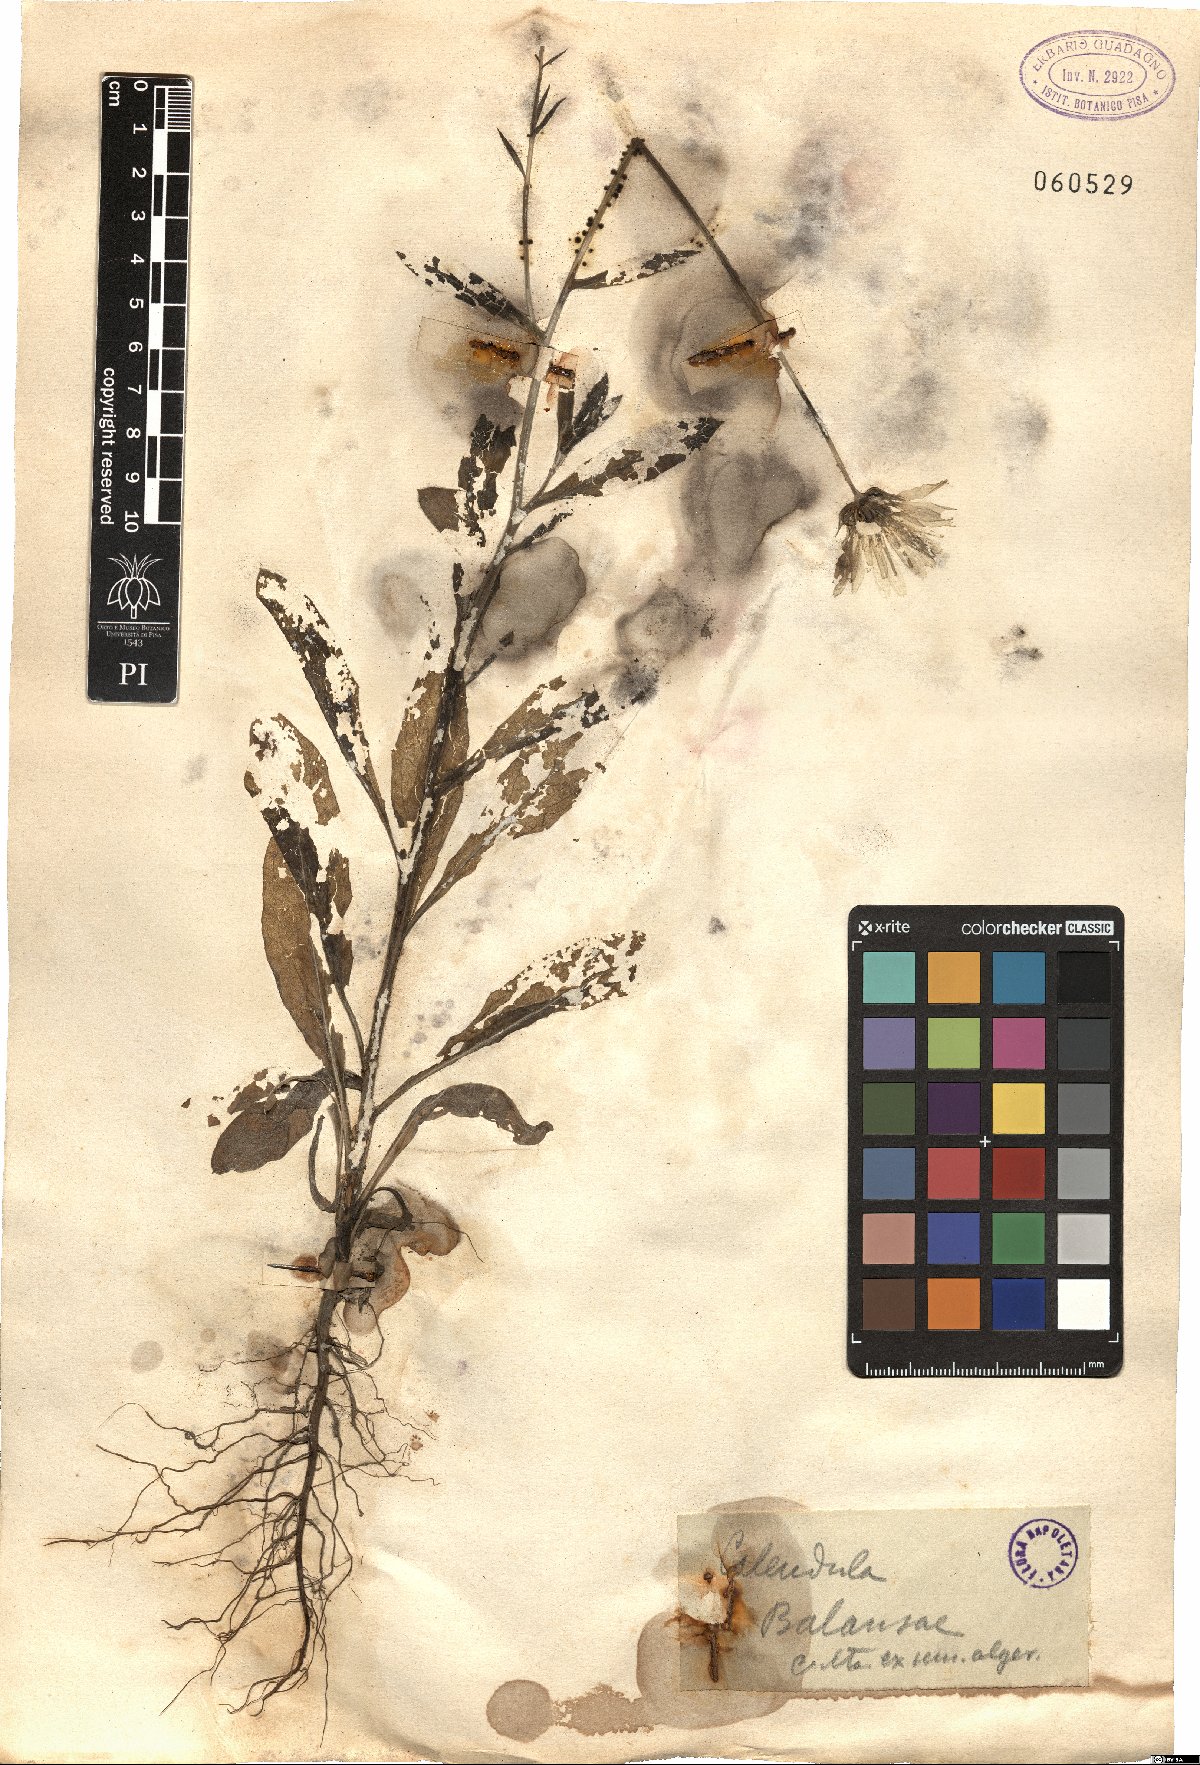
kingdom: Plantae
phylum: Tracheophyta
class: Magnoliopsida
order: Asterales
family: Asteraceae
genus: Calendula
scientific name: Calendula suffruticosa
